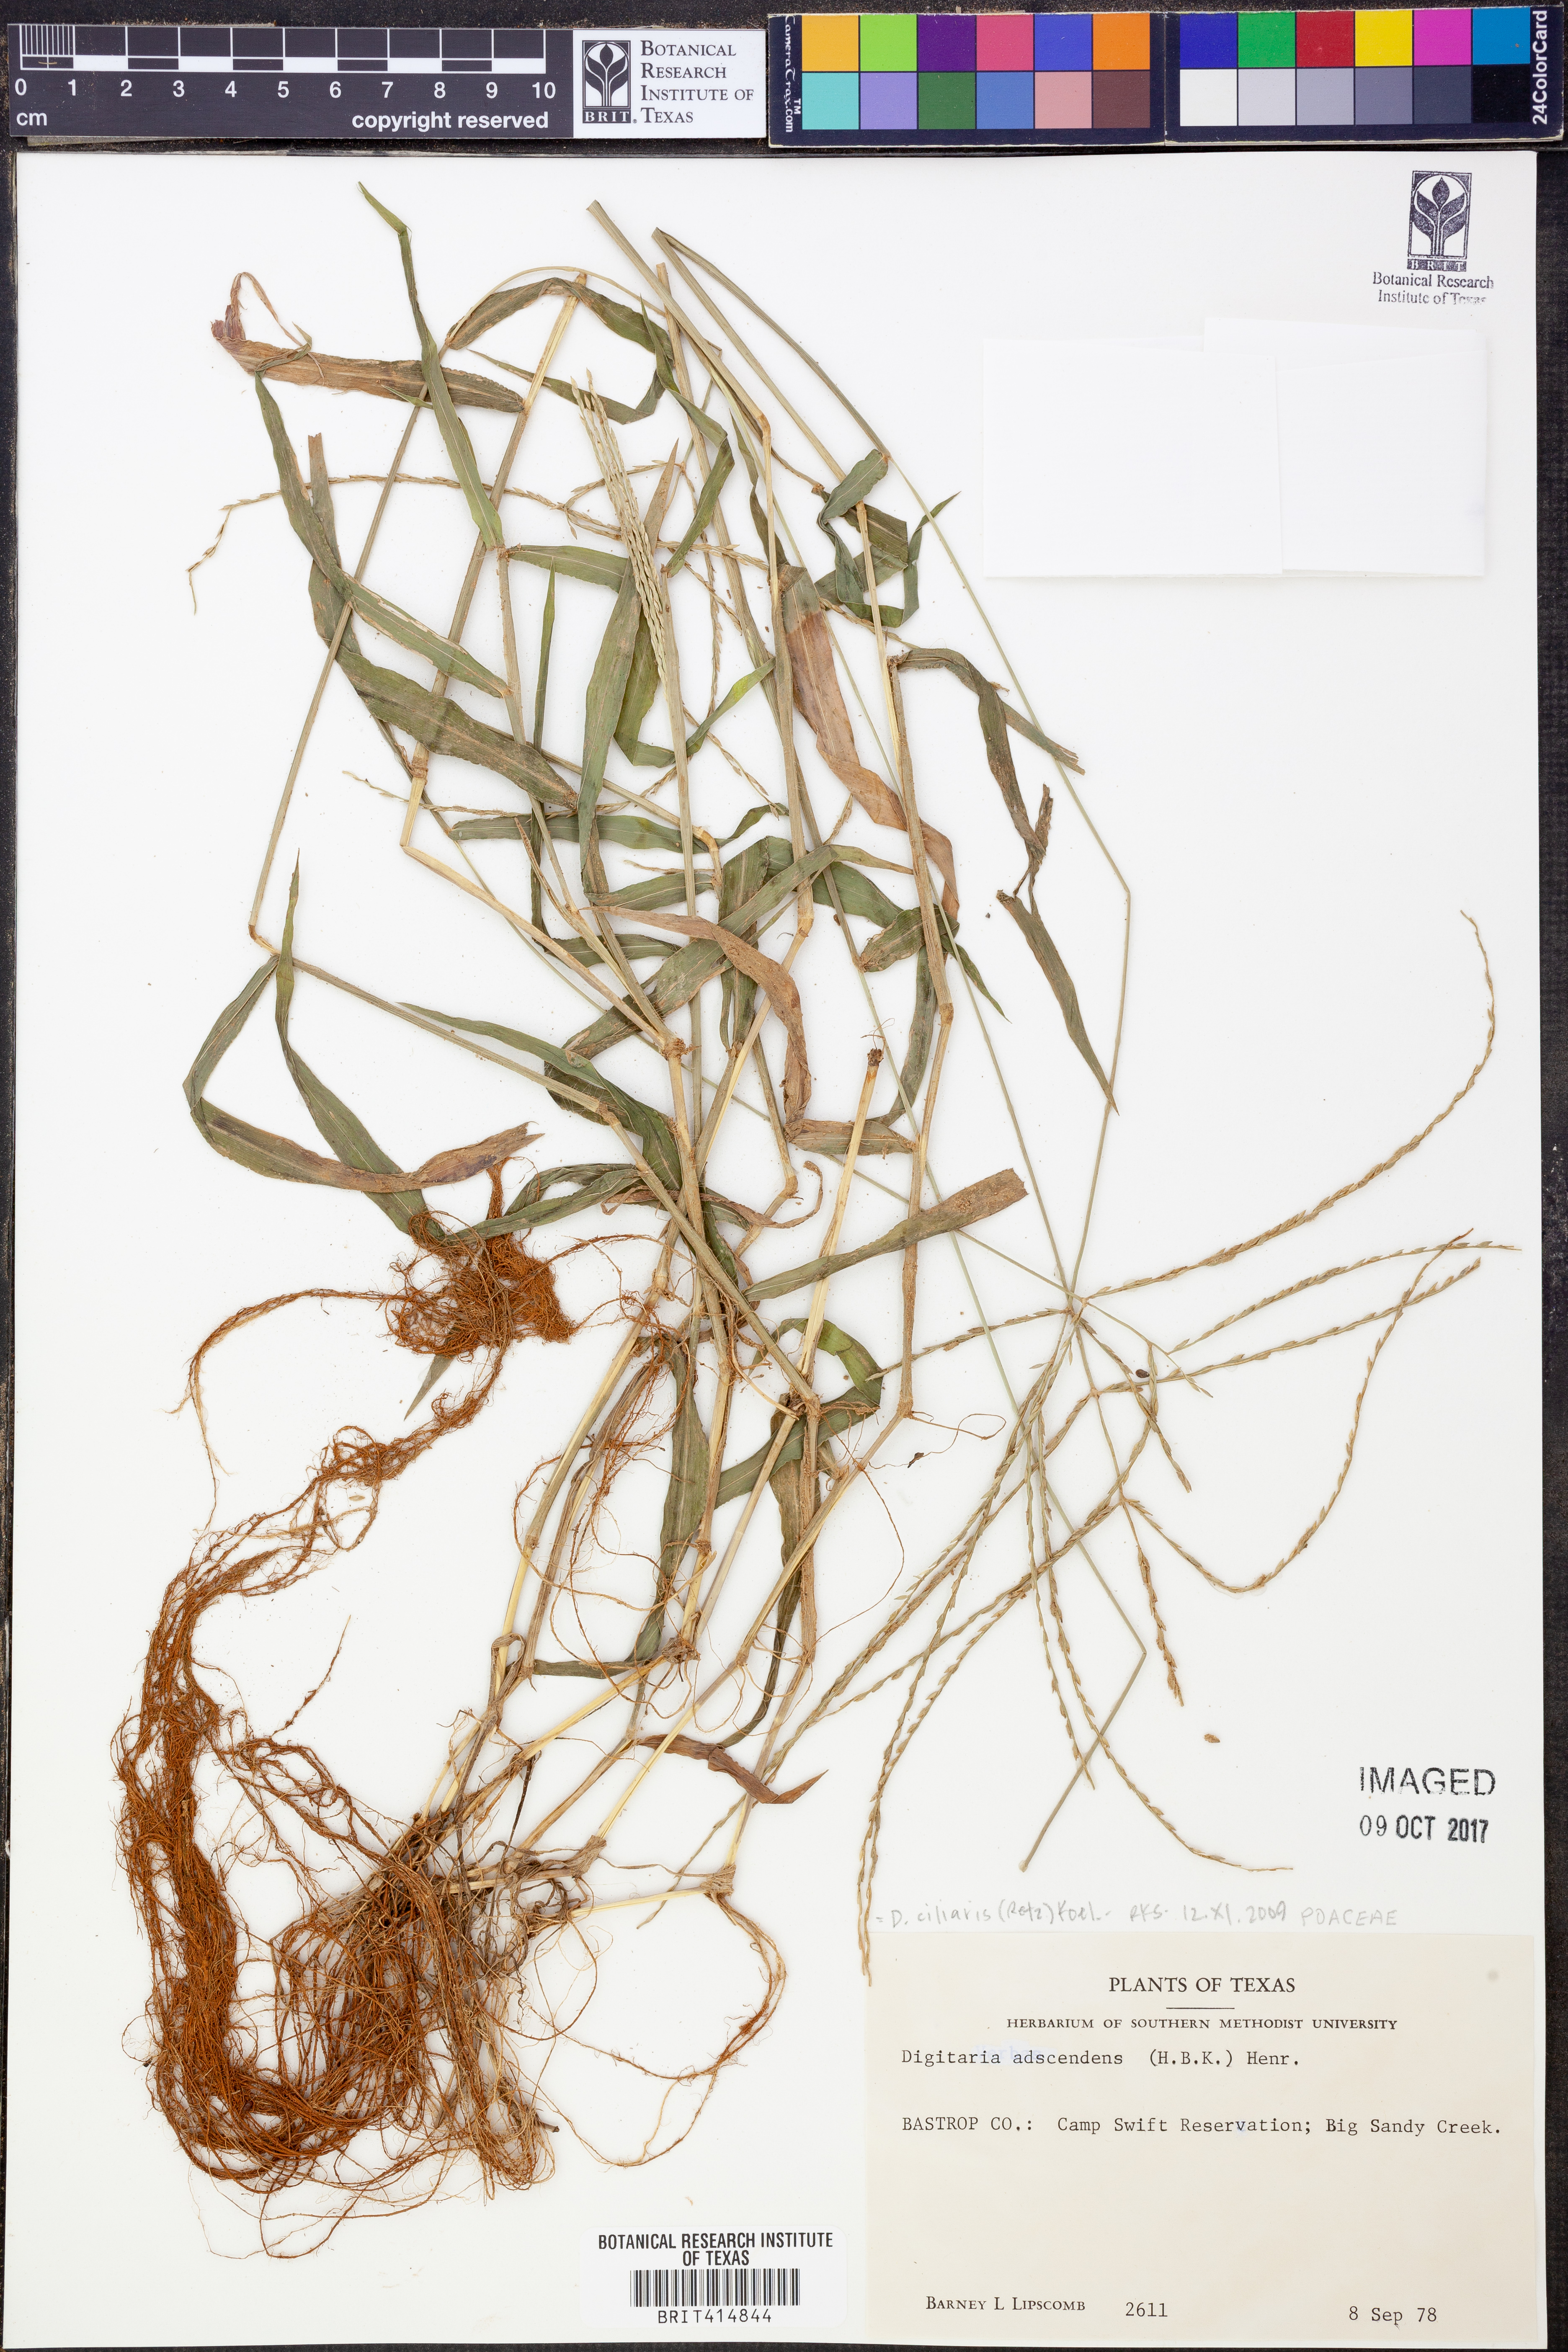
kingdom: Plantae
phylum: Tracheophyta
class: Liliopsida
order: Poales
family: Poaceae
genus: Digitaria
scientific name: Digitaria ciliaris
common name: Tropical finger-grass
